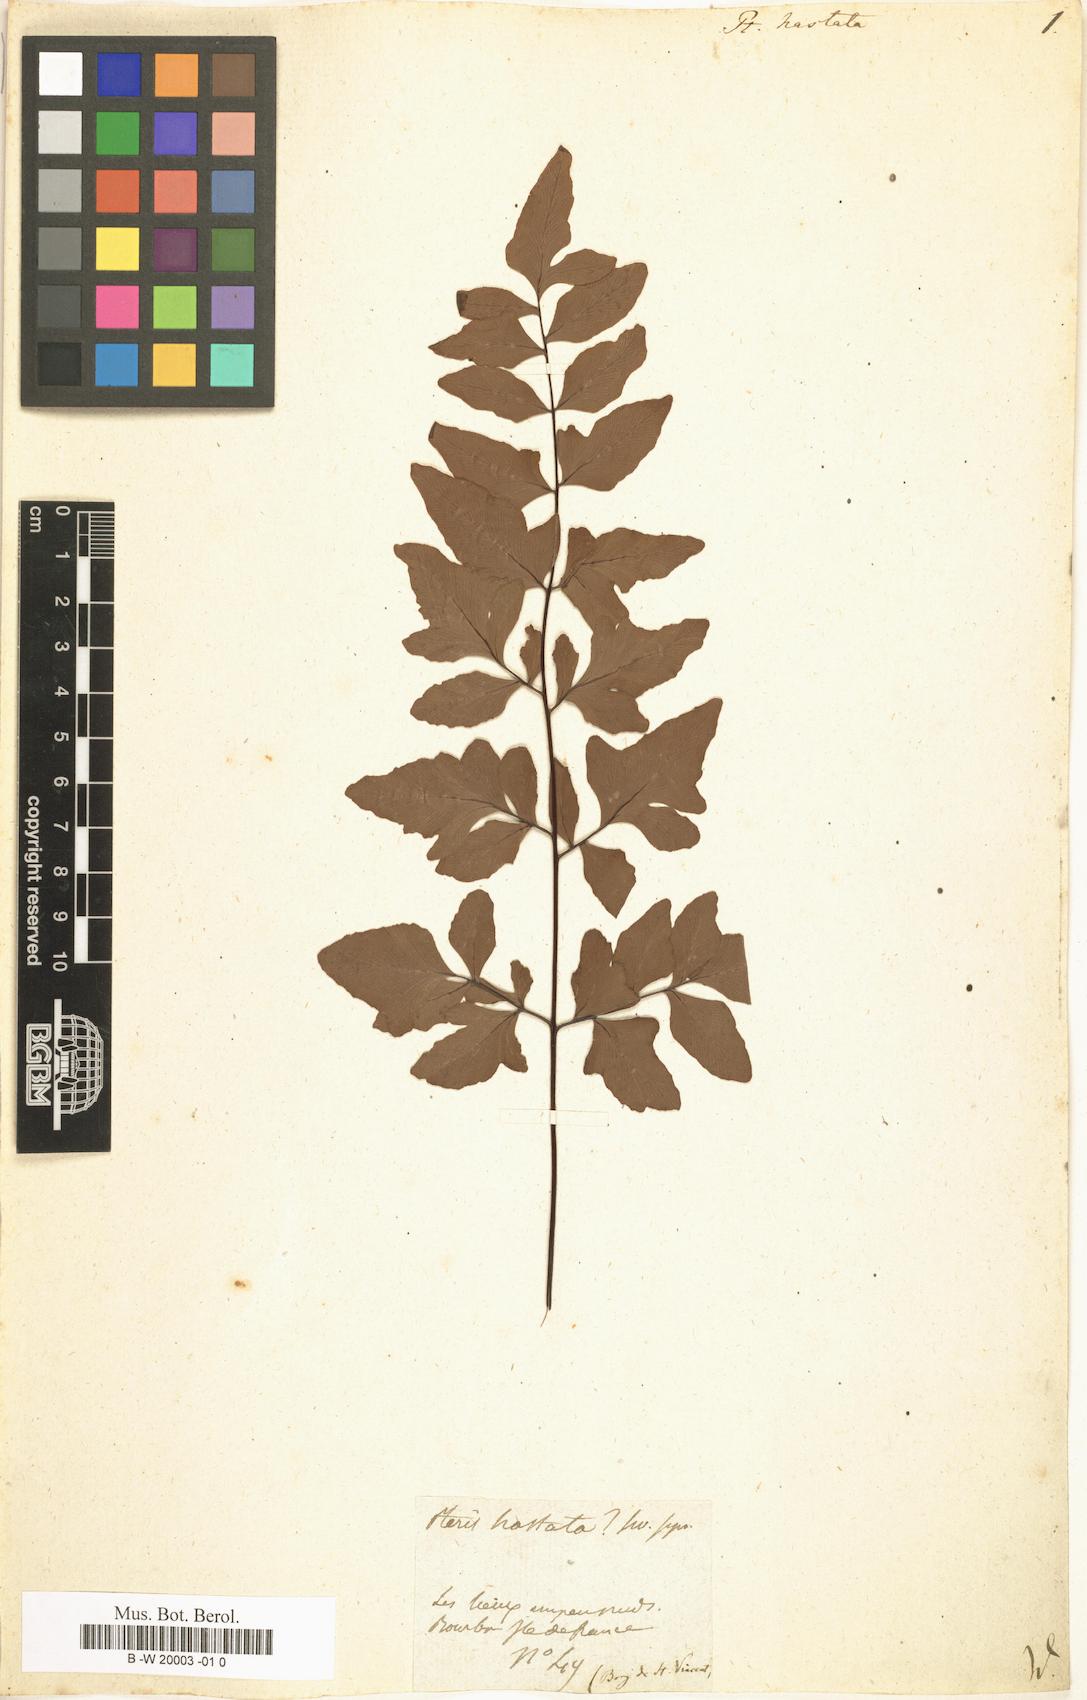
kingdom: Plantae
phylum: Tracheophyta
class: Polypodiopsida
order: Polypodiales
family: Pteridaceae
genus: Pteris
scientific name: Pteris hastata
